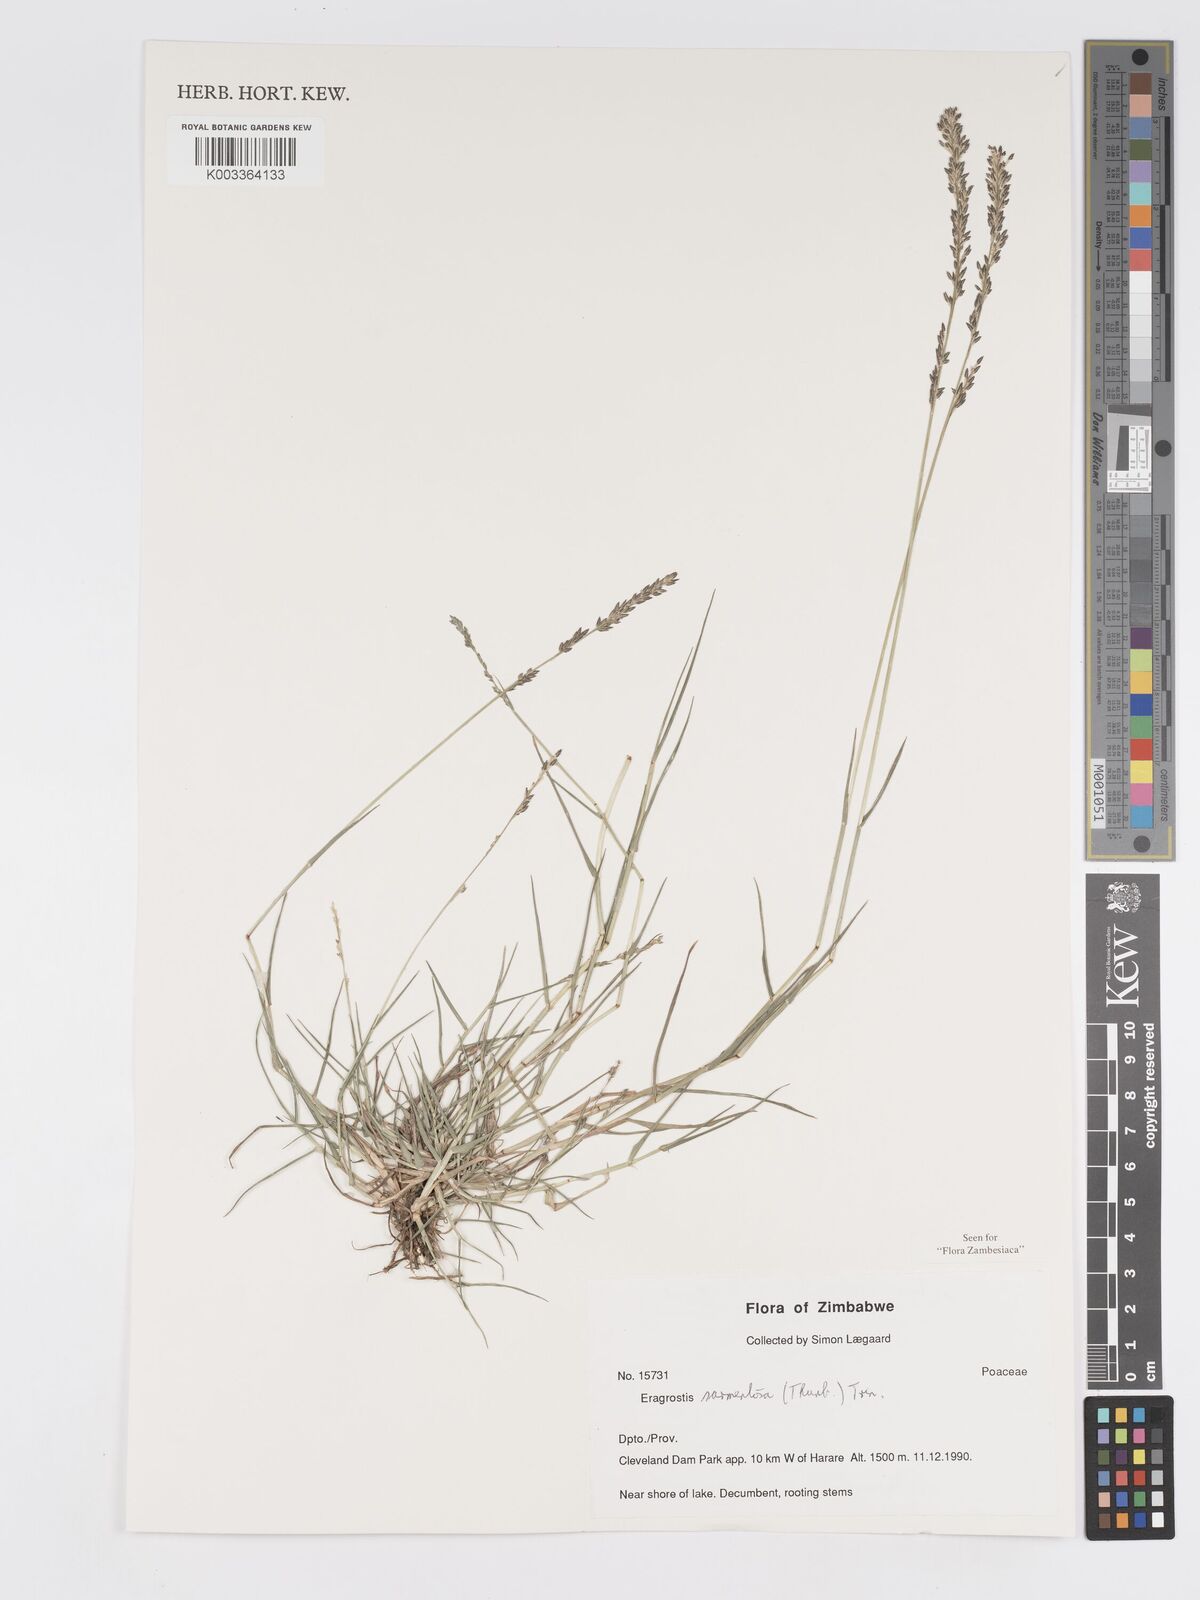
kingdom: Plantae
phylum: Tracheophyta
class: Liliopsida
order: Poales
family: Poaceae
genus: Eragrostis
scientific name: Eragrostis sarmentosa
